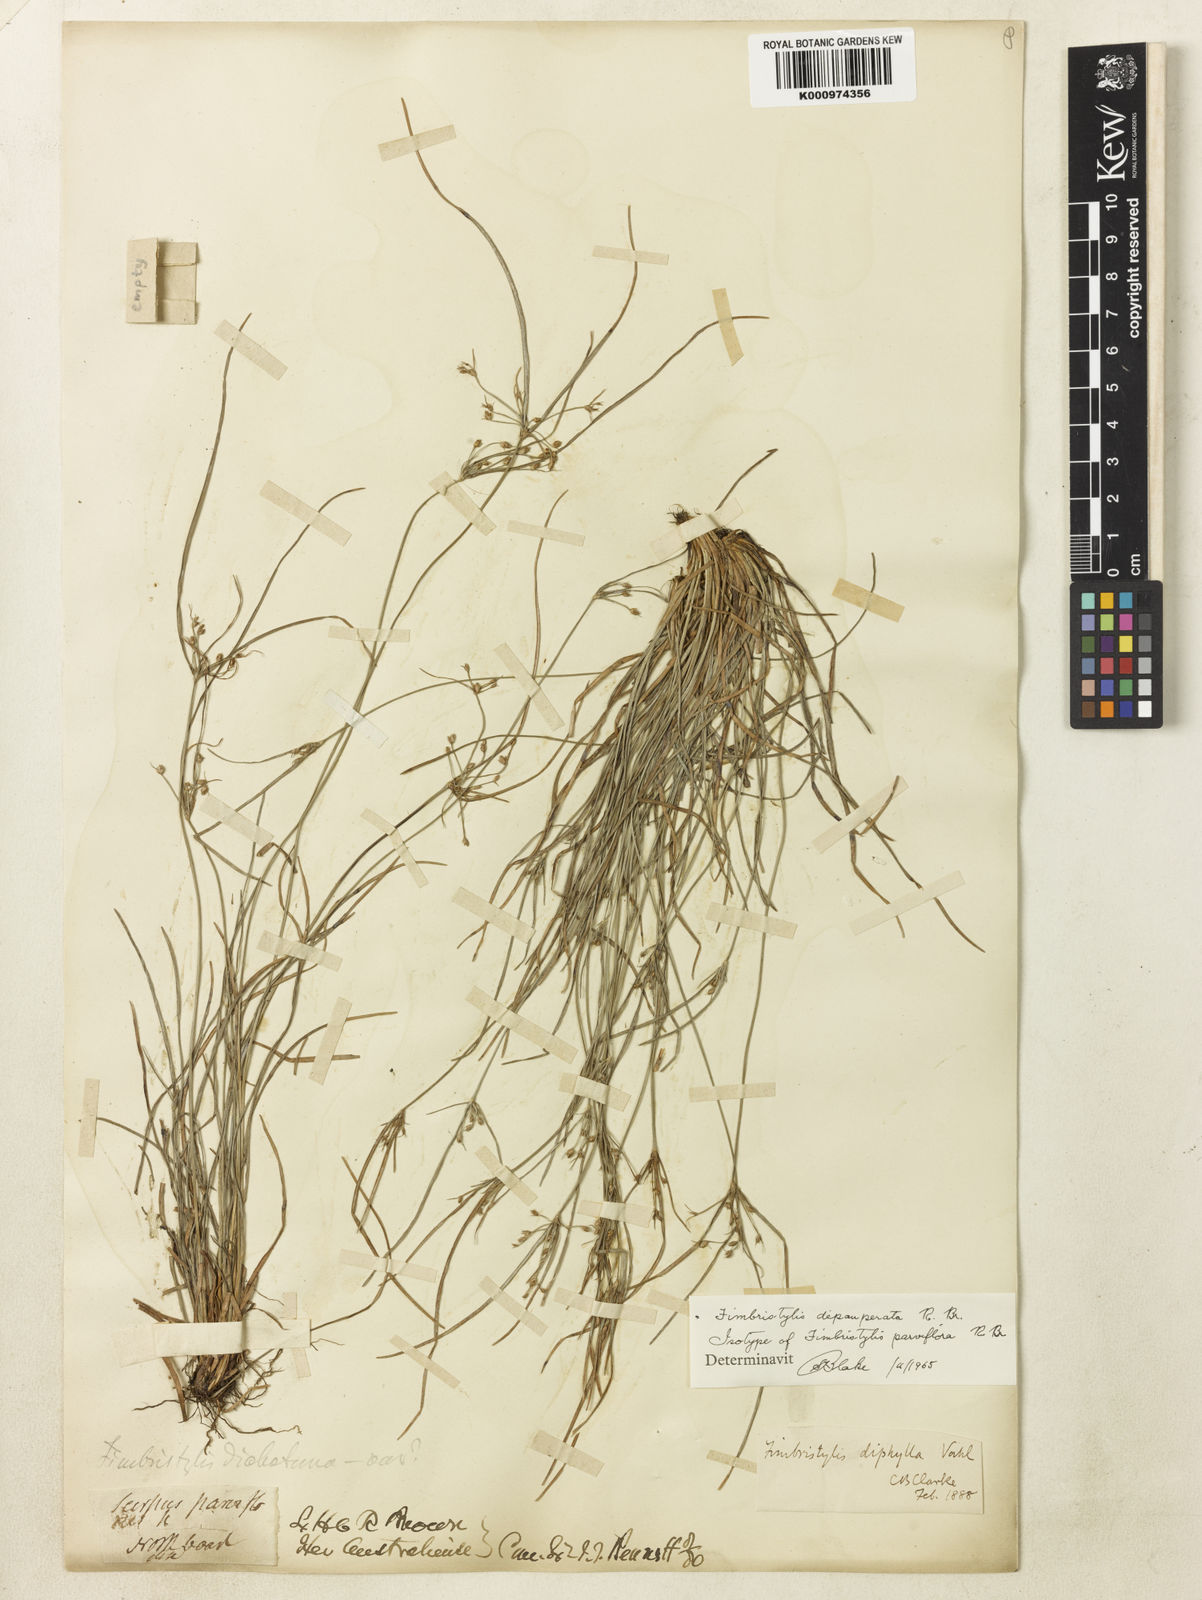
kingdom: Plantae
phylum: Tracheophyta
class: Liliopsida
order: Poales
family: Cyperaceae
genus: Fimbristylis
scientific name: Fimbristylis dichotoma
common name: Forked fimbry
